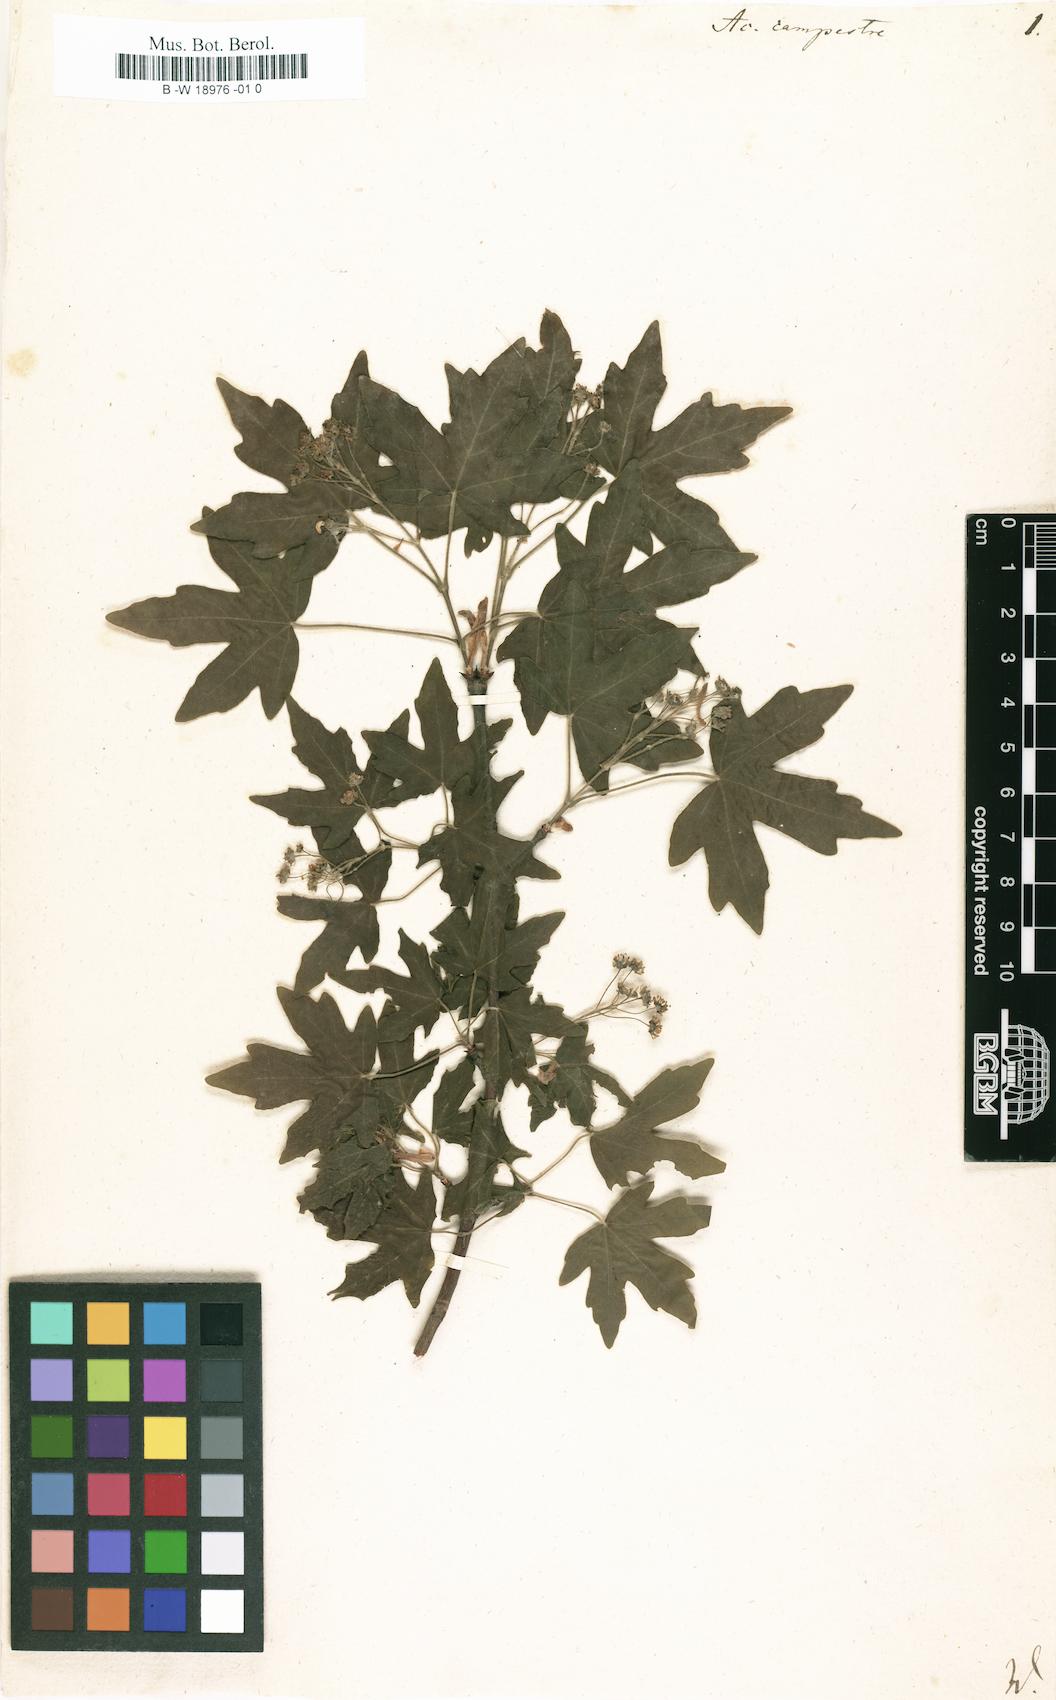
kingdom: Plantae
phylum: Tracheophyta
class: Magnoliopsida
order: Sapindales
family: Sapindaceae
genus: Acer
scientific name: Acer campestre
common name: Field maple
